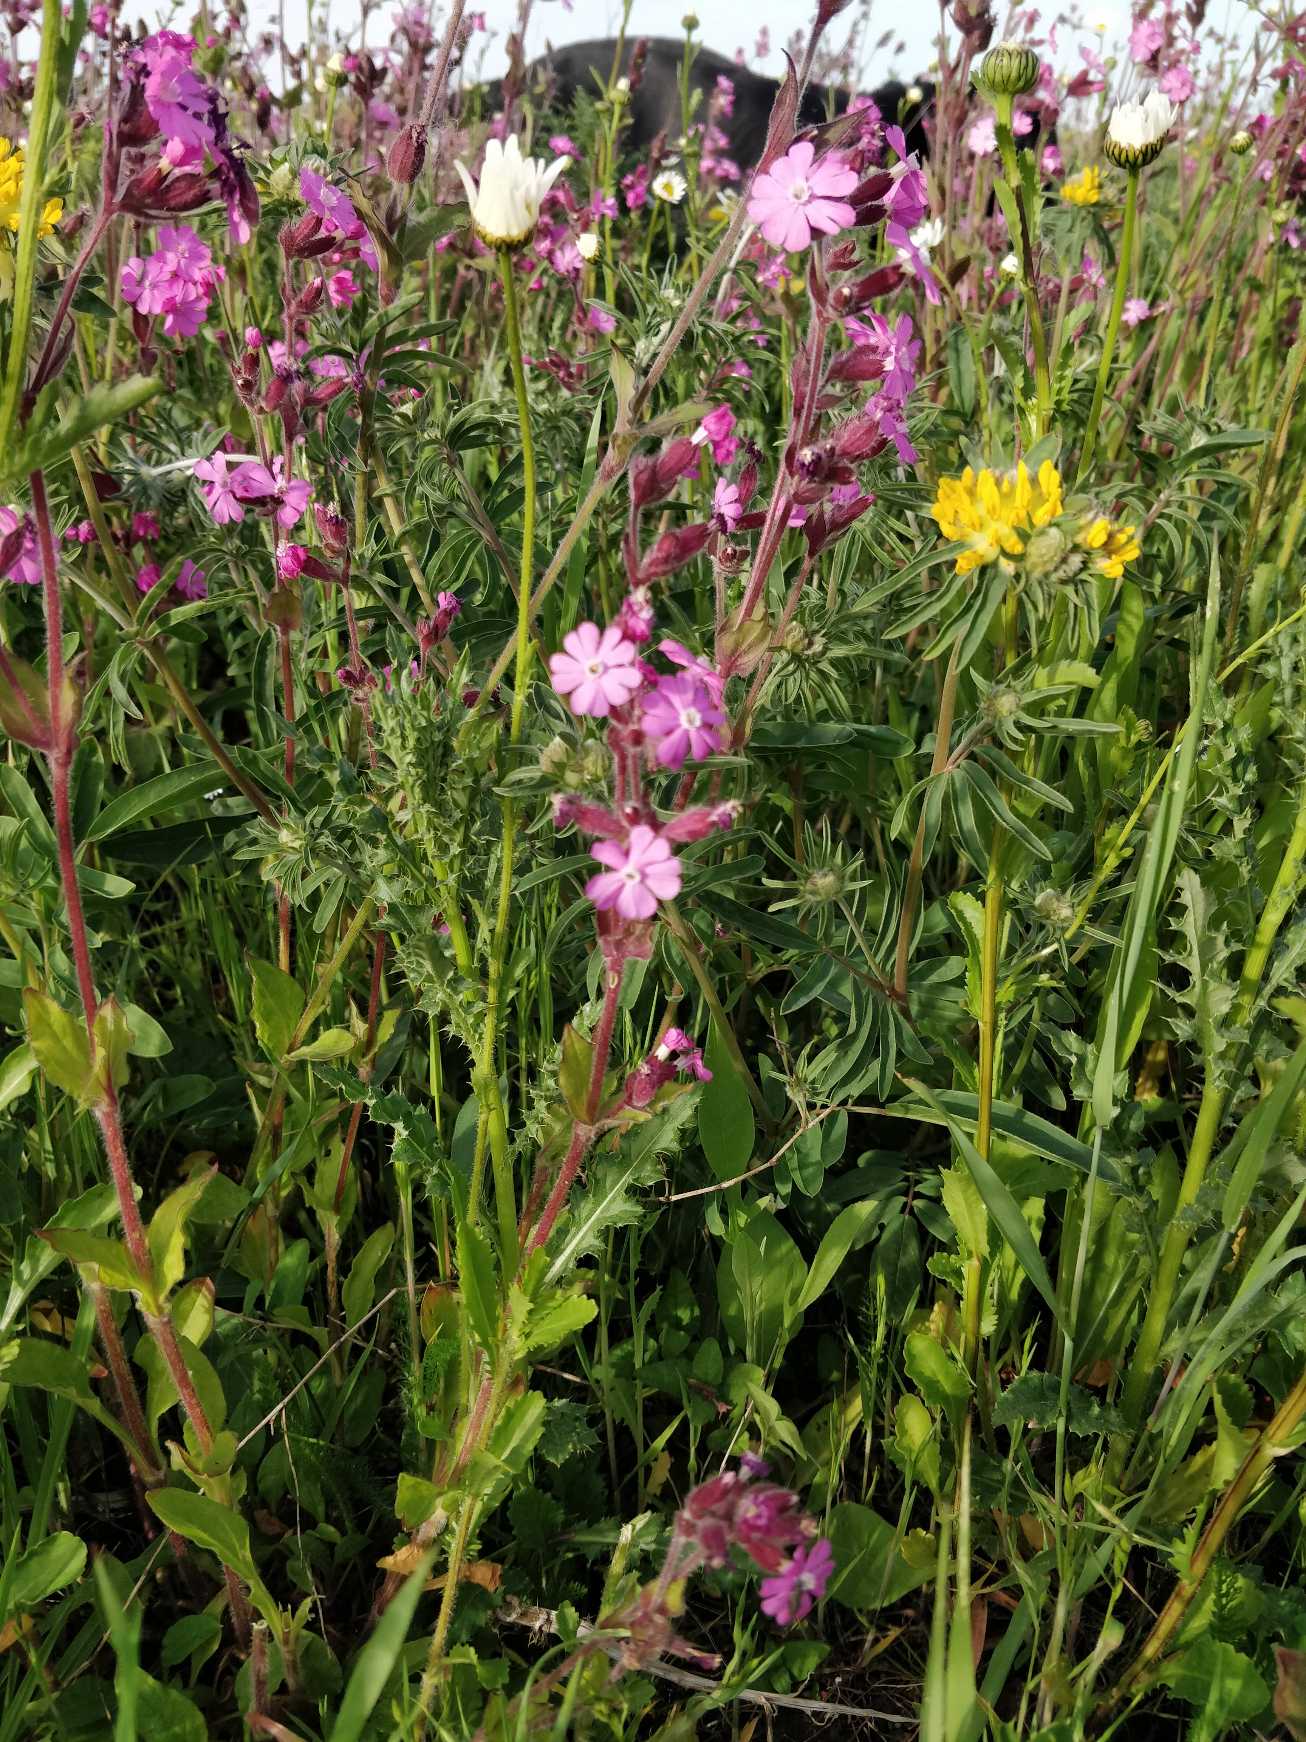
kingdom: Plantae
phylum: Tracheophyta
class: Magnoliopsida
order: Caryophyllales
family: Caryophyllaceae
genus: Silene
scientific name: Silene dioica
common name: Dagpragtstjerne
